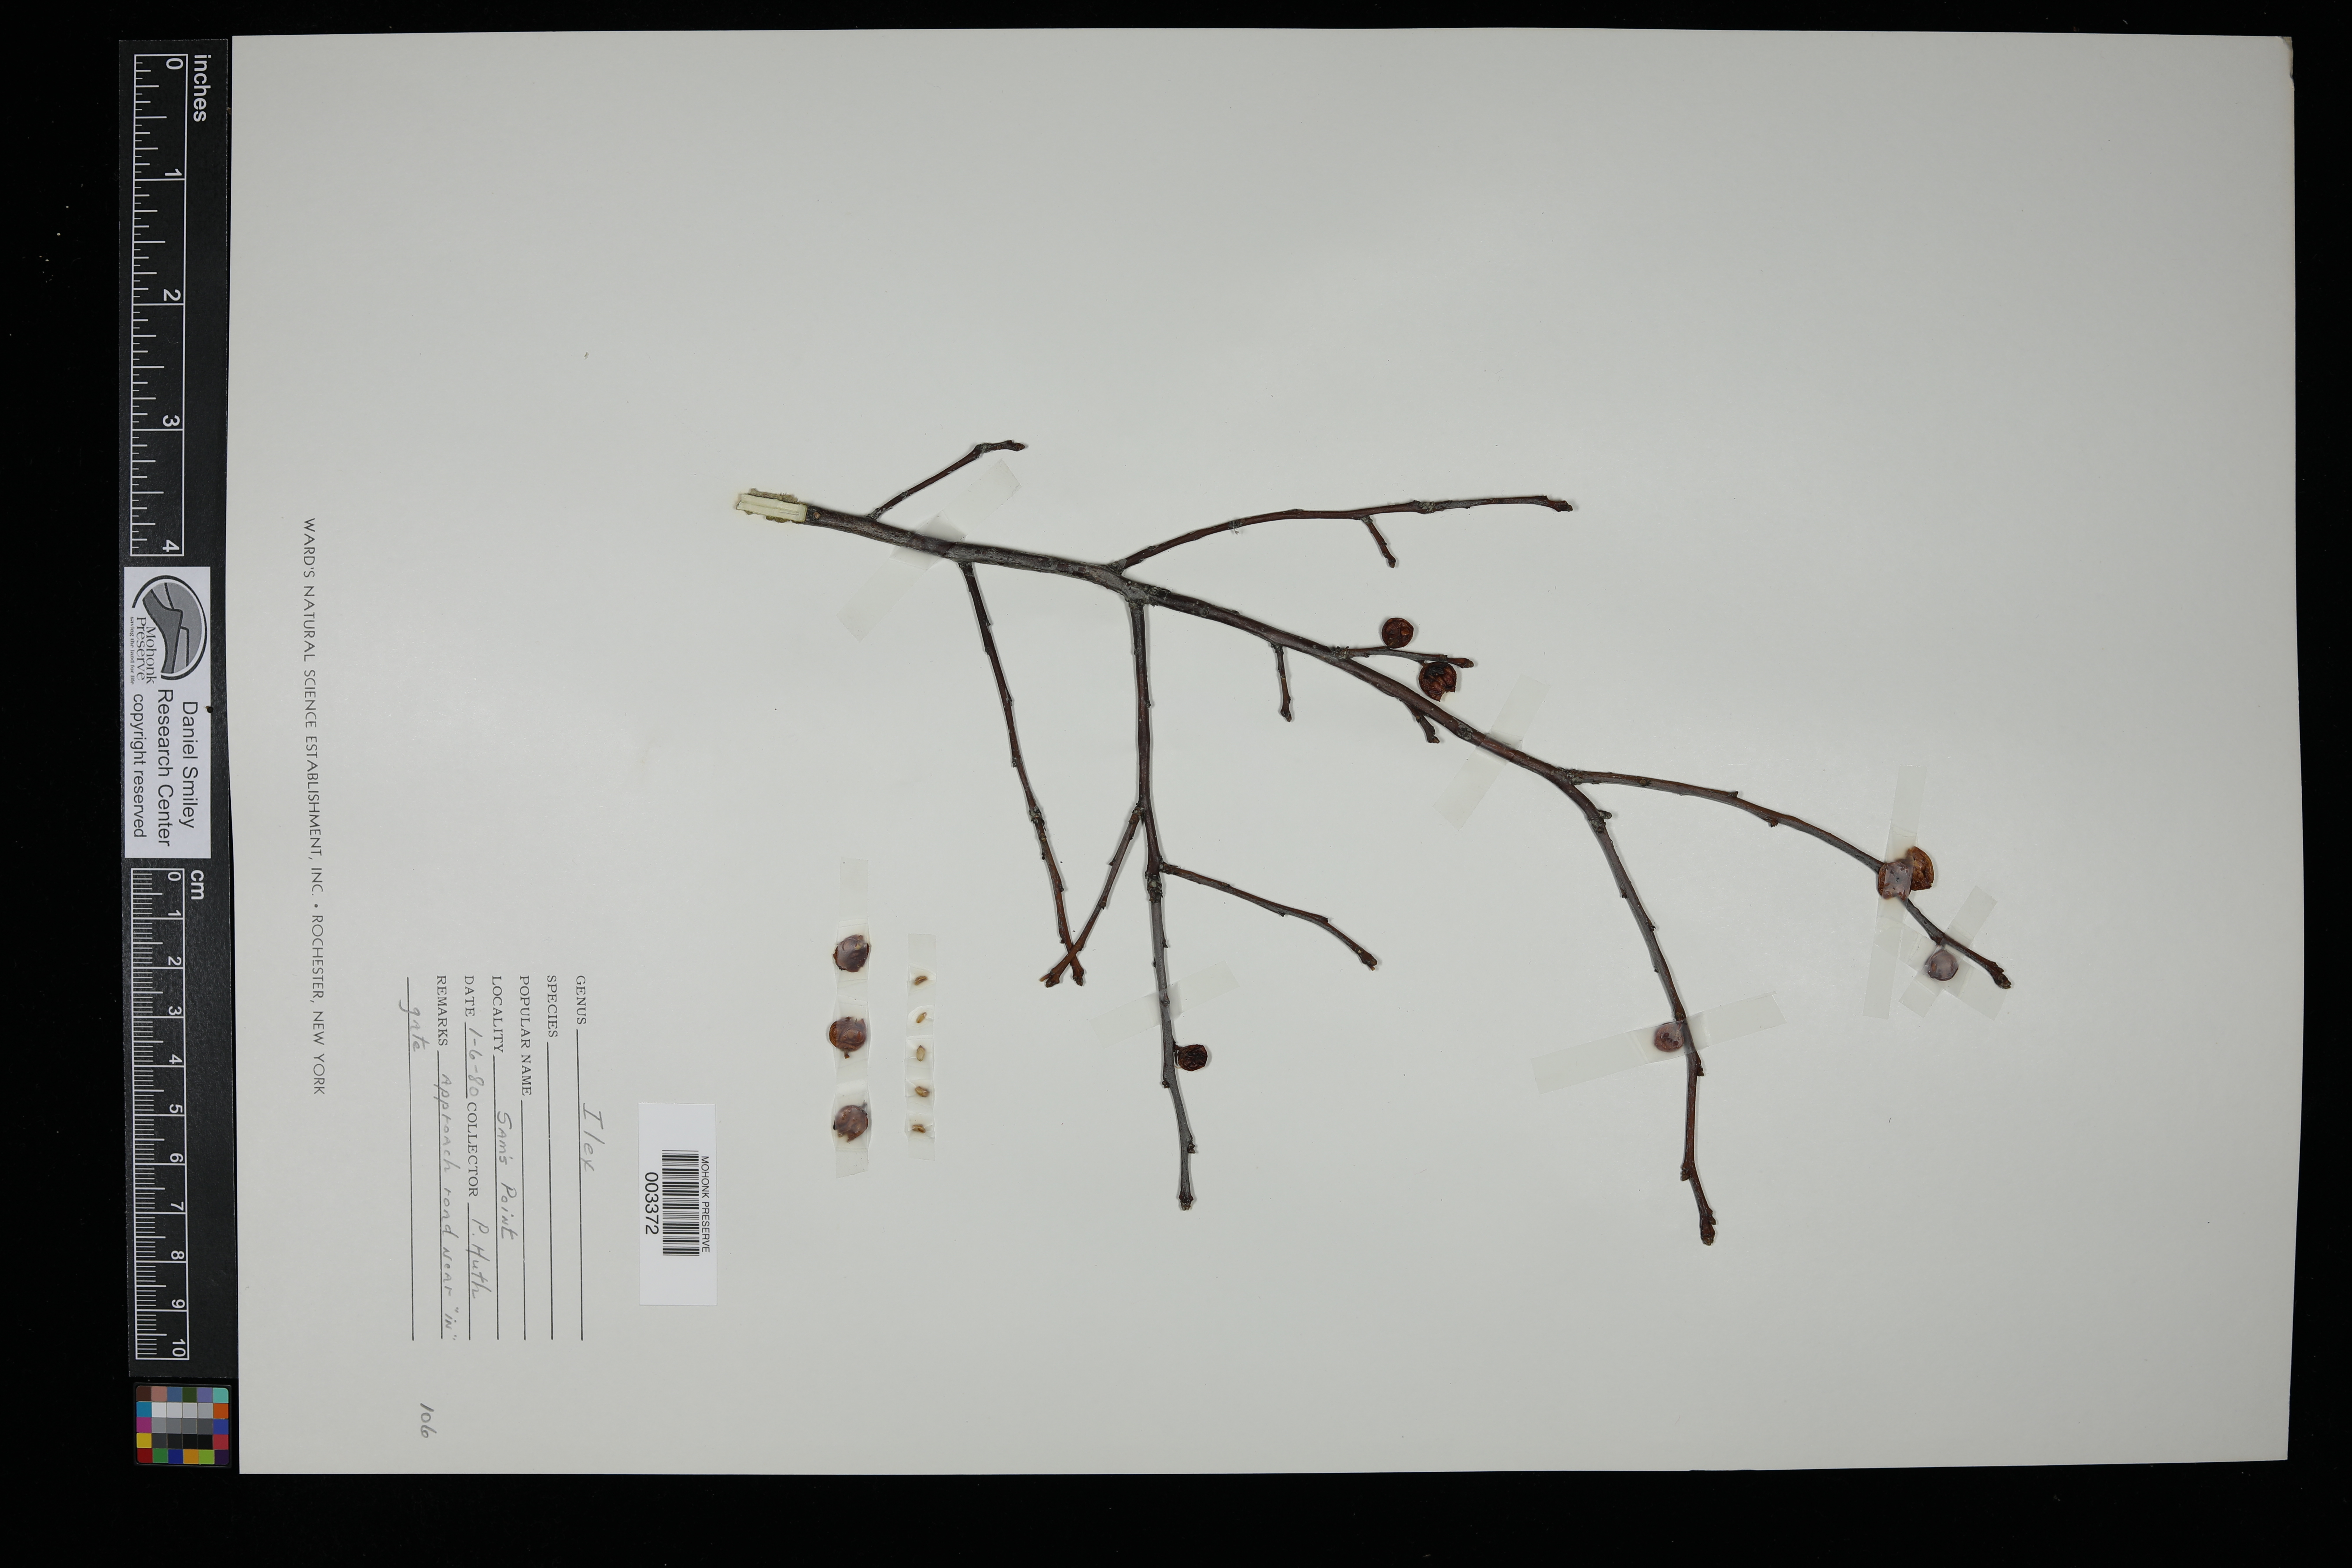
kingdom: Plantae
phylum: Tracheophyta
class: Magnoliopsida
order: Aquifoliales
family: Aquifoliaceae
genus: Ilex
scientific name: Ilex
